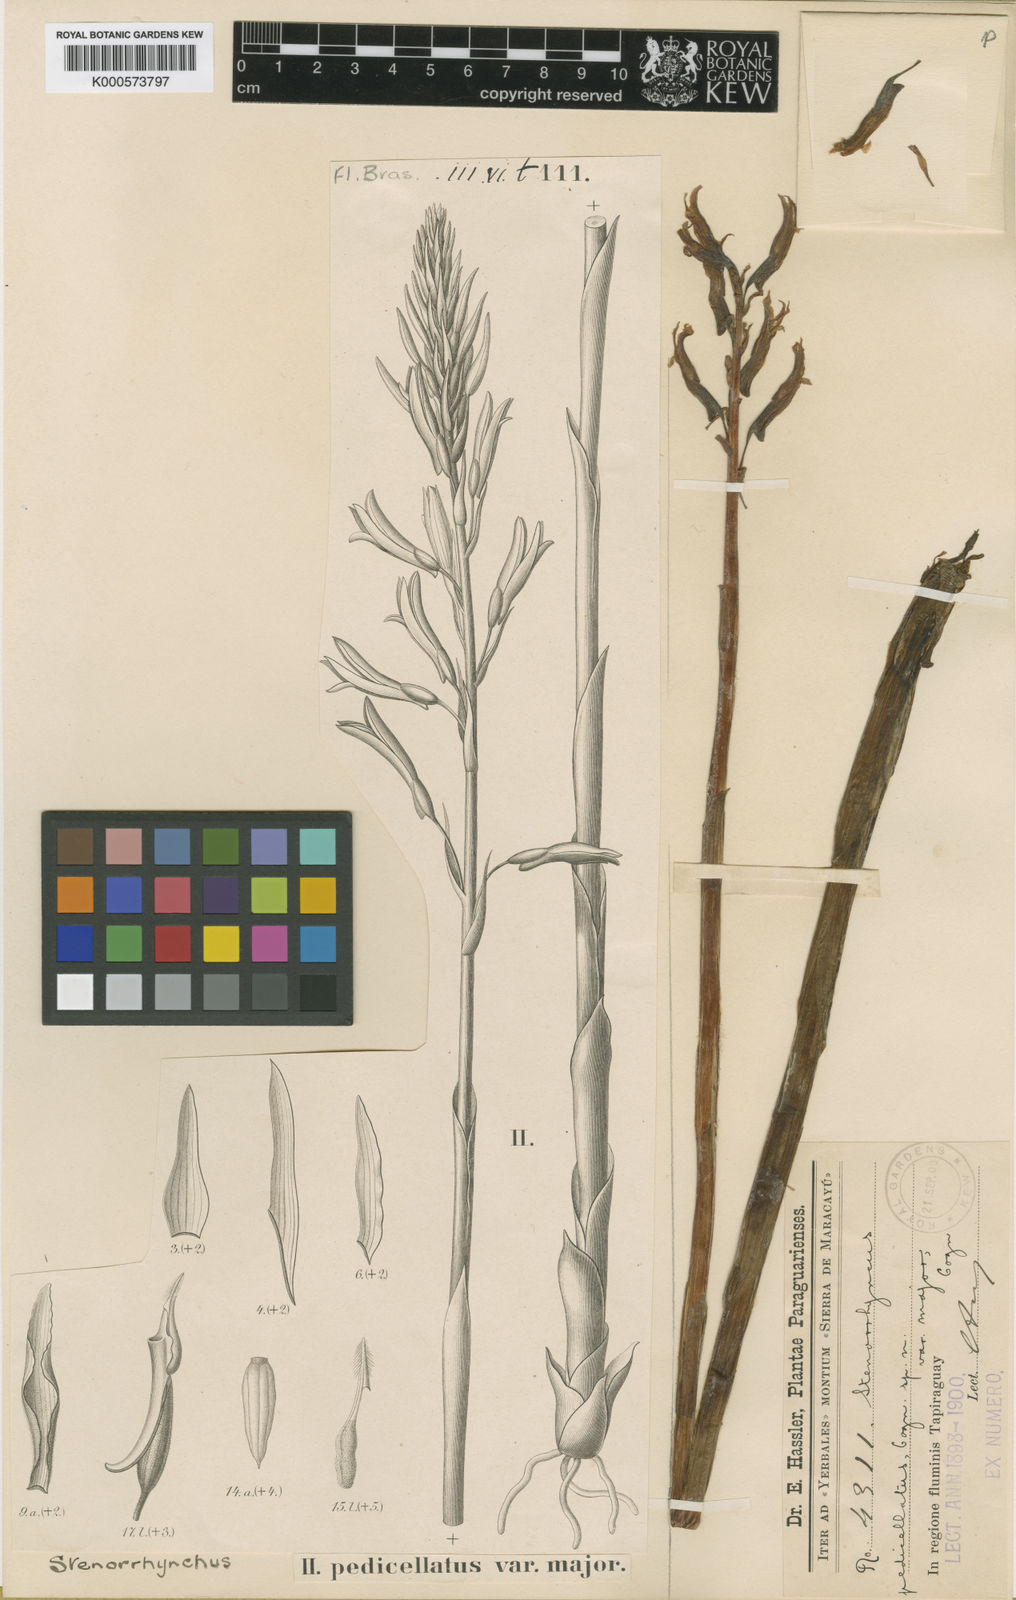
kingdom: Plantae
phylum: Tracheophyta
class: Liliopsida
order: Asparagales
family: Orchidaceae
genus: Sacoila
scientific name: Sacoila pedicellata
